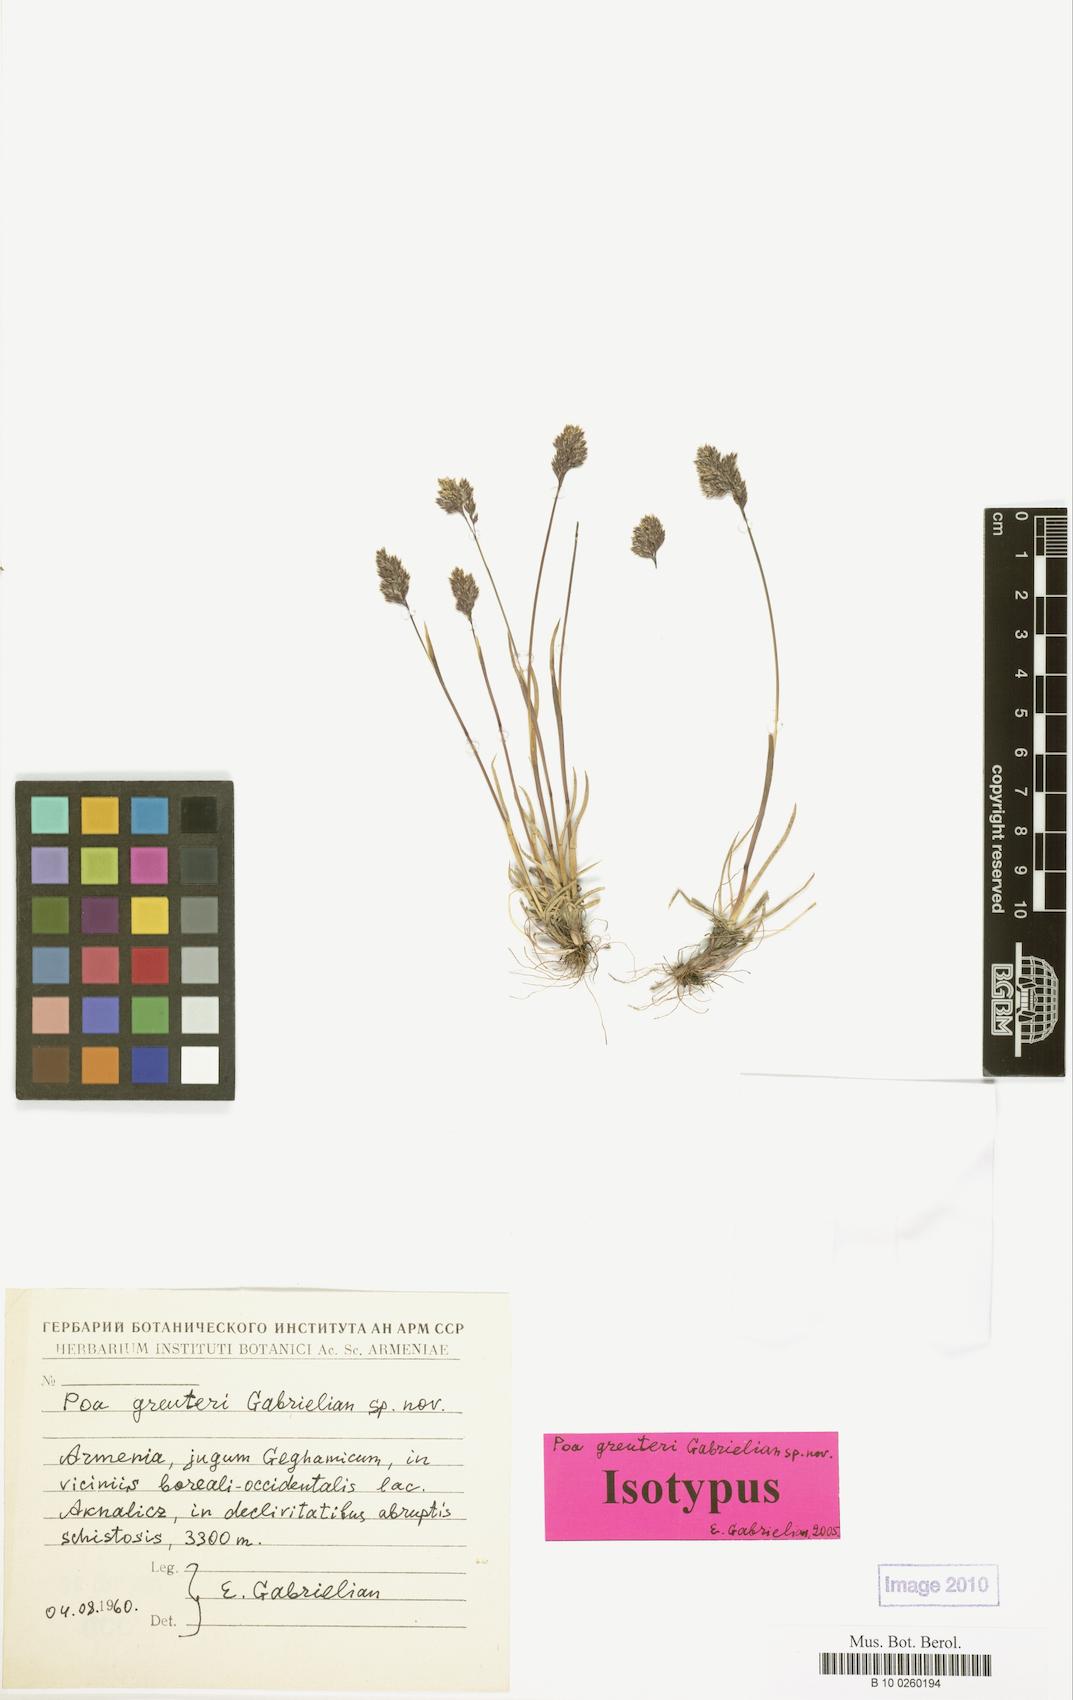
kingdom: Plantae
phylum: Tracheophyta
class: Liliopsida
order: Poales
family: Poaceae
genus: Poa
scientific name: Poa greuteri
